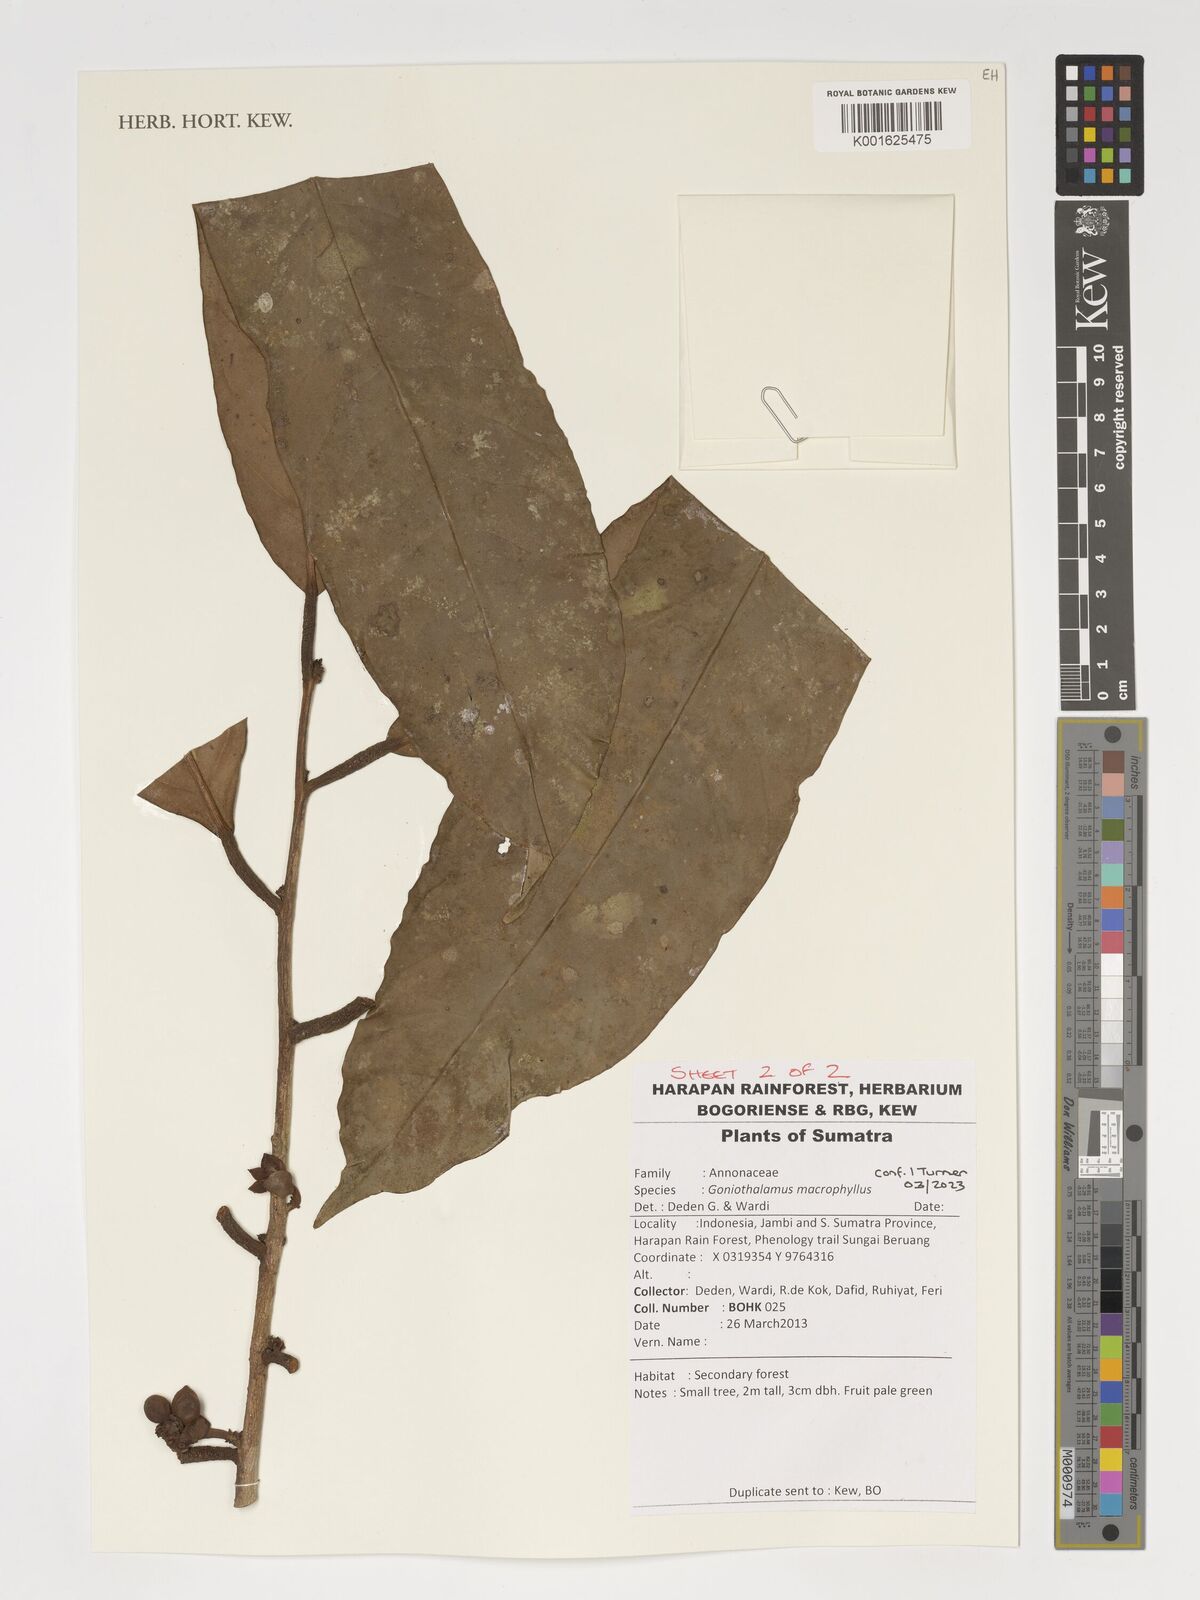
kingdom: Plantae
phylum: Tracheophyta
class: Magnoliopsida
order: Magnoliales
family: Annonaceae
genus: Goniothalamus
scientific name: Goniothalamus macrophyllus
